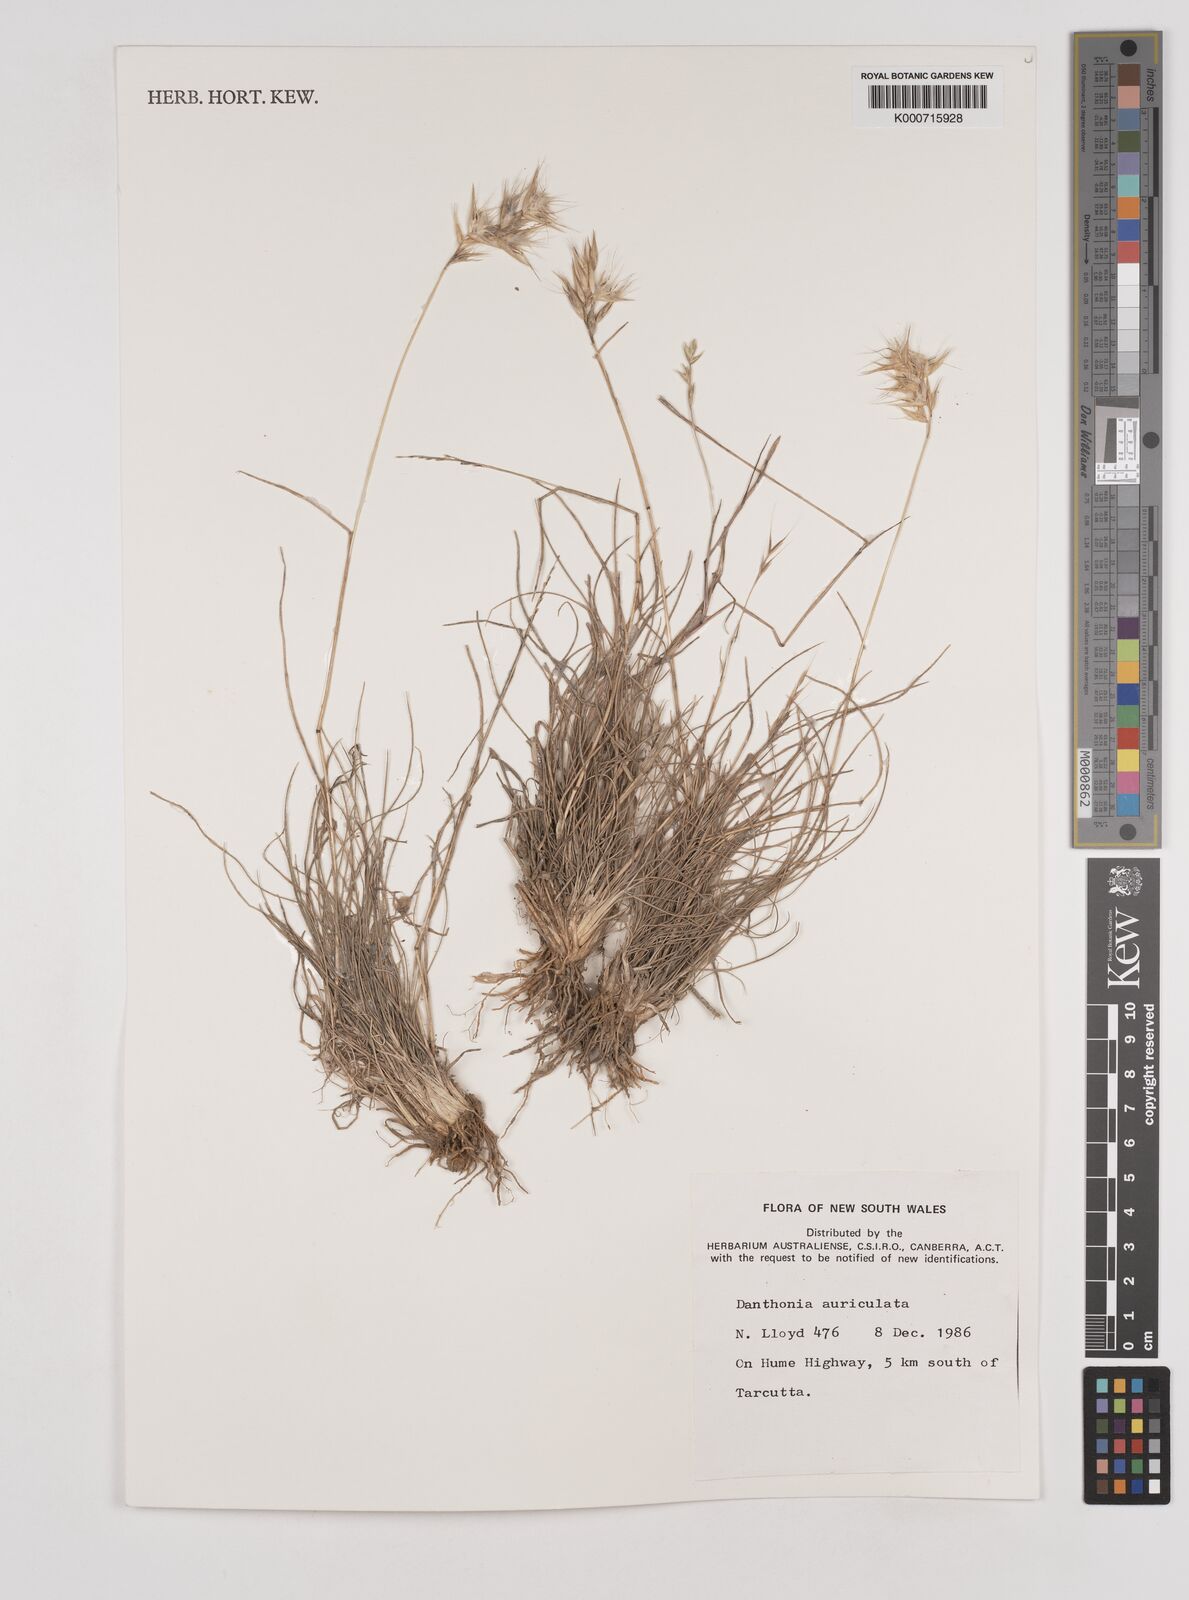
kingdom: Plantae
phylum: Tracheophyta
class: Liliopsida
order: Poales
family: Poaceae
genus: Rytidosperma
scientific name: Rytidosperma auriculatum
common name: Lobed wallaby grass
